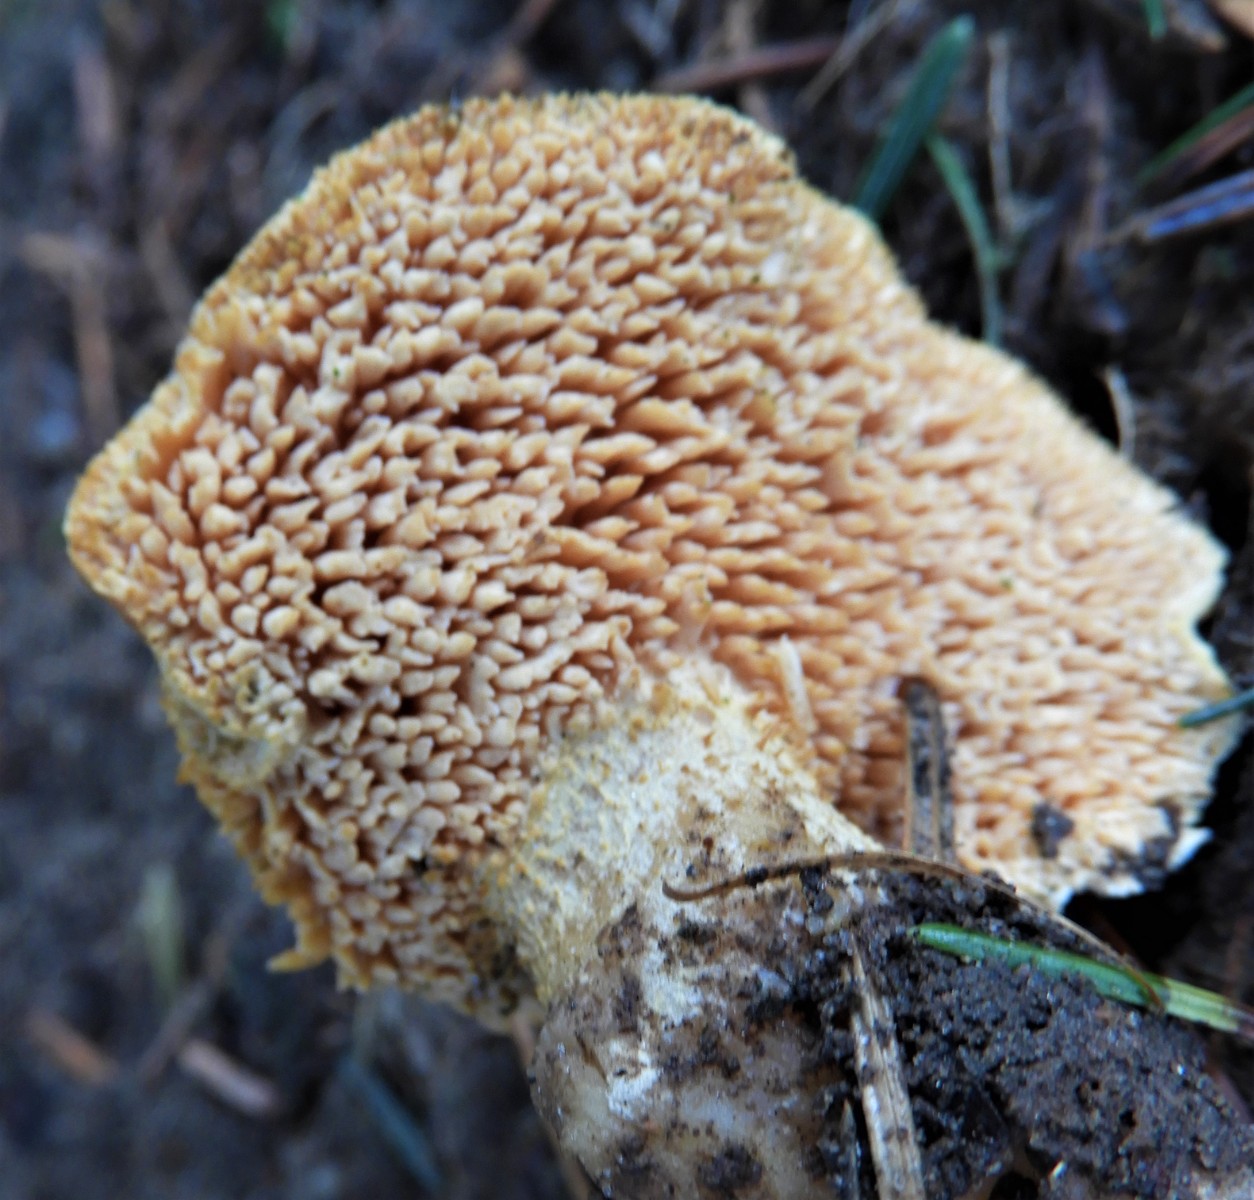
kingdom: Fungi
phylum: Basidiomycota
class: Agaricomycetes
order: Cantharellales
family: Hydnaceae
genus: Hydnum
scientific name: Hydnum
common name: pigsvamp
